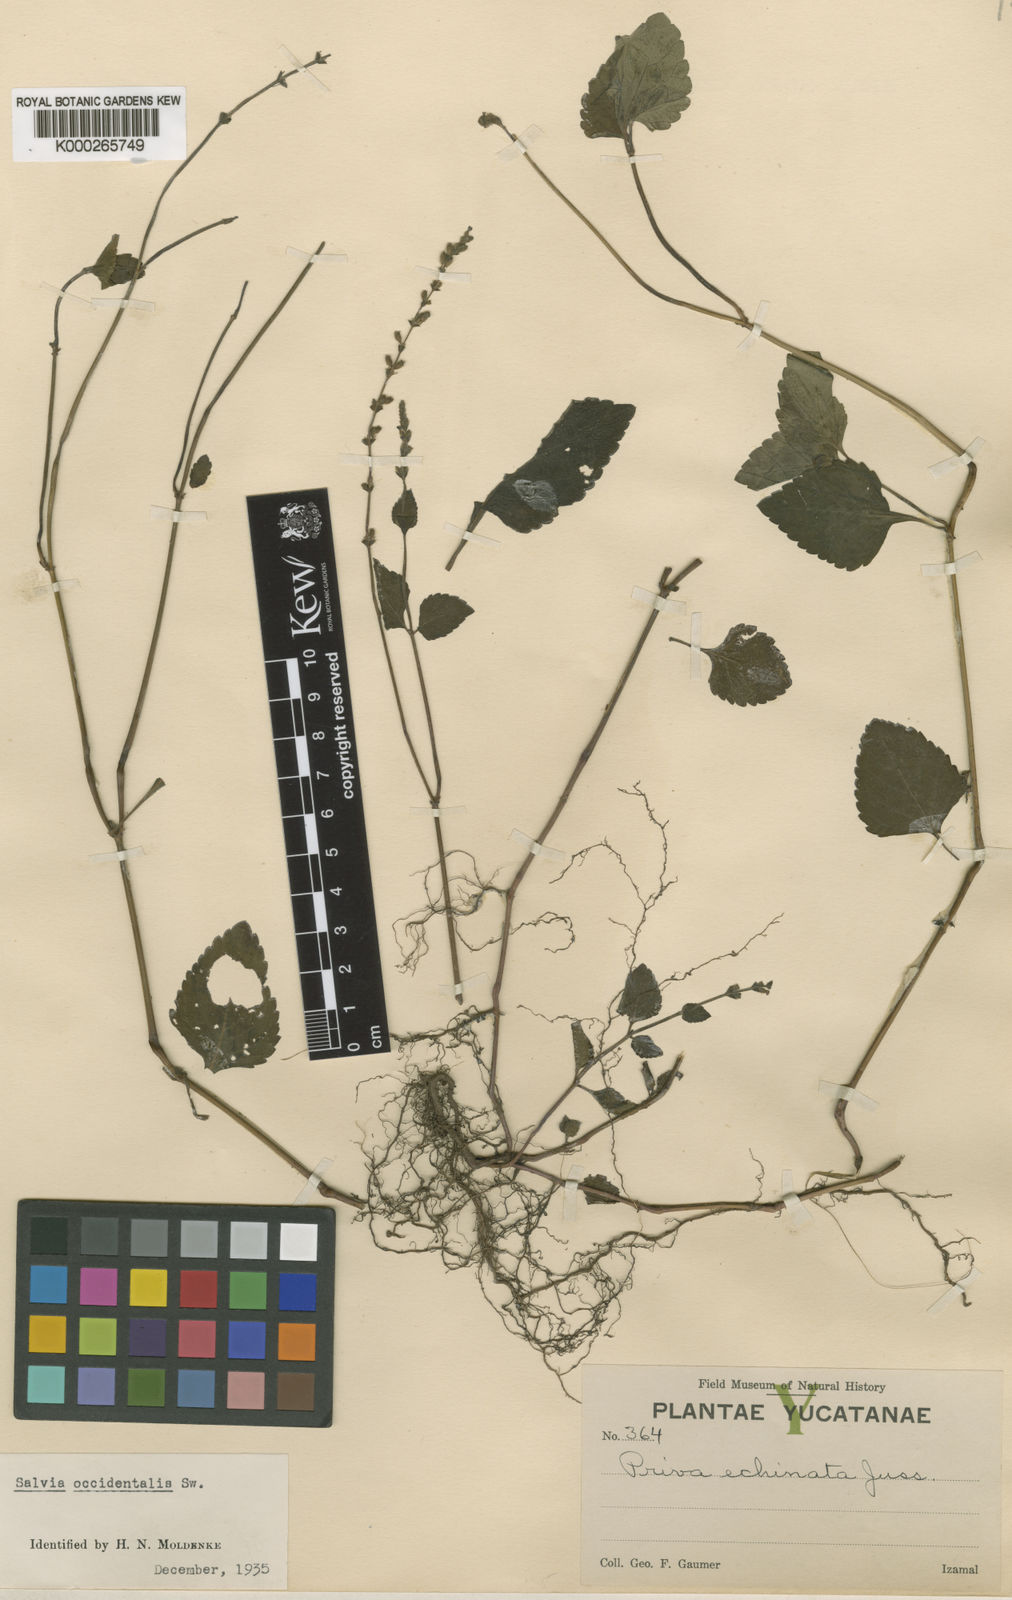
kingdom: Plantae
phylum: Tracheophyta
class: Magnoliopsida
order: Lamiales
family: Lamiaceae
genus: Salvia
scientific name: Salvia occidentalis
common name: West indian sage
